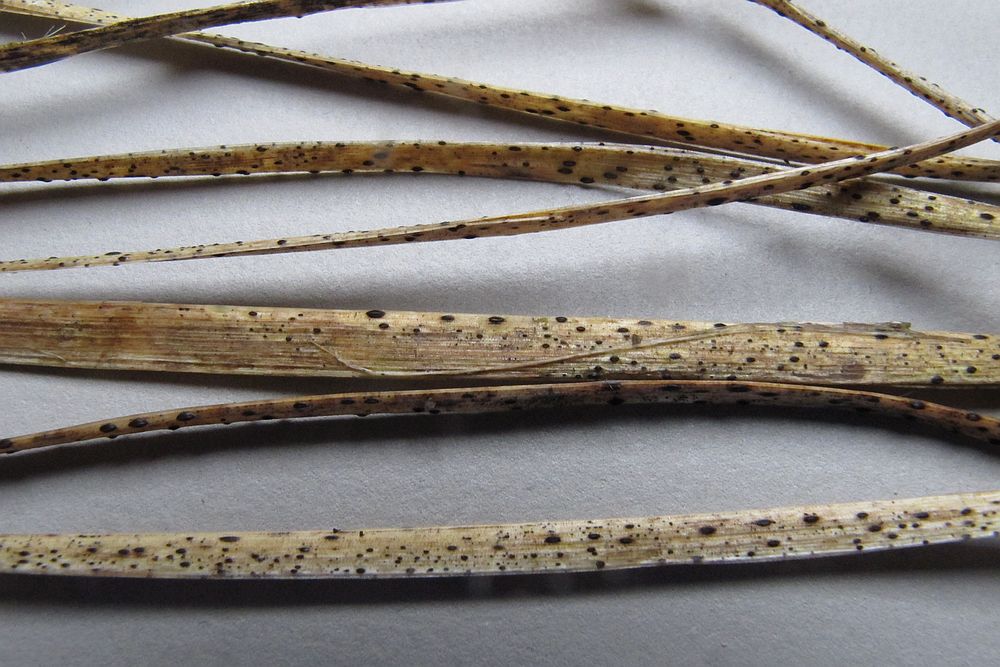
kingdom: Fungi
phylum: Ascomycota
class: Leotiomycetes
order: Rhytismatales
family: Rhytismataceae
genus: Lophodermium
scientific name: Lophodermium
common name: fureplet
